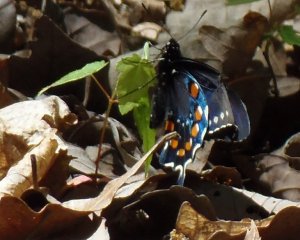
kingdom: Animalia
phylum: Arthropoda
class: Insecta
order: Lepidoptera
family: Papilionidae
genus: Battus
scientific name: Battus philenor
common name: Pipevine Swallowtail
